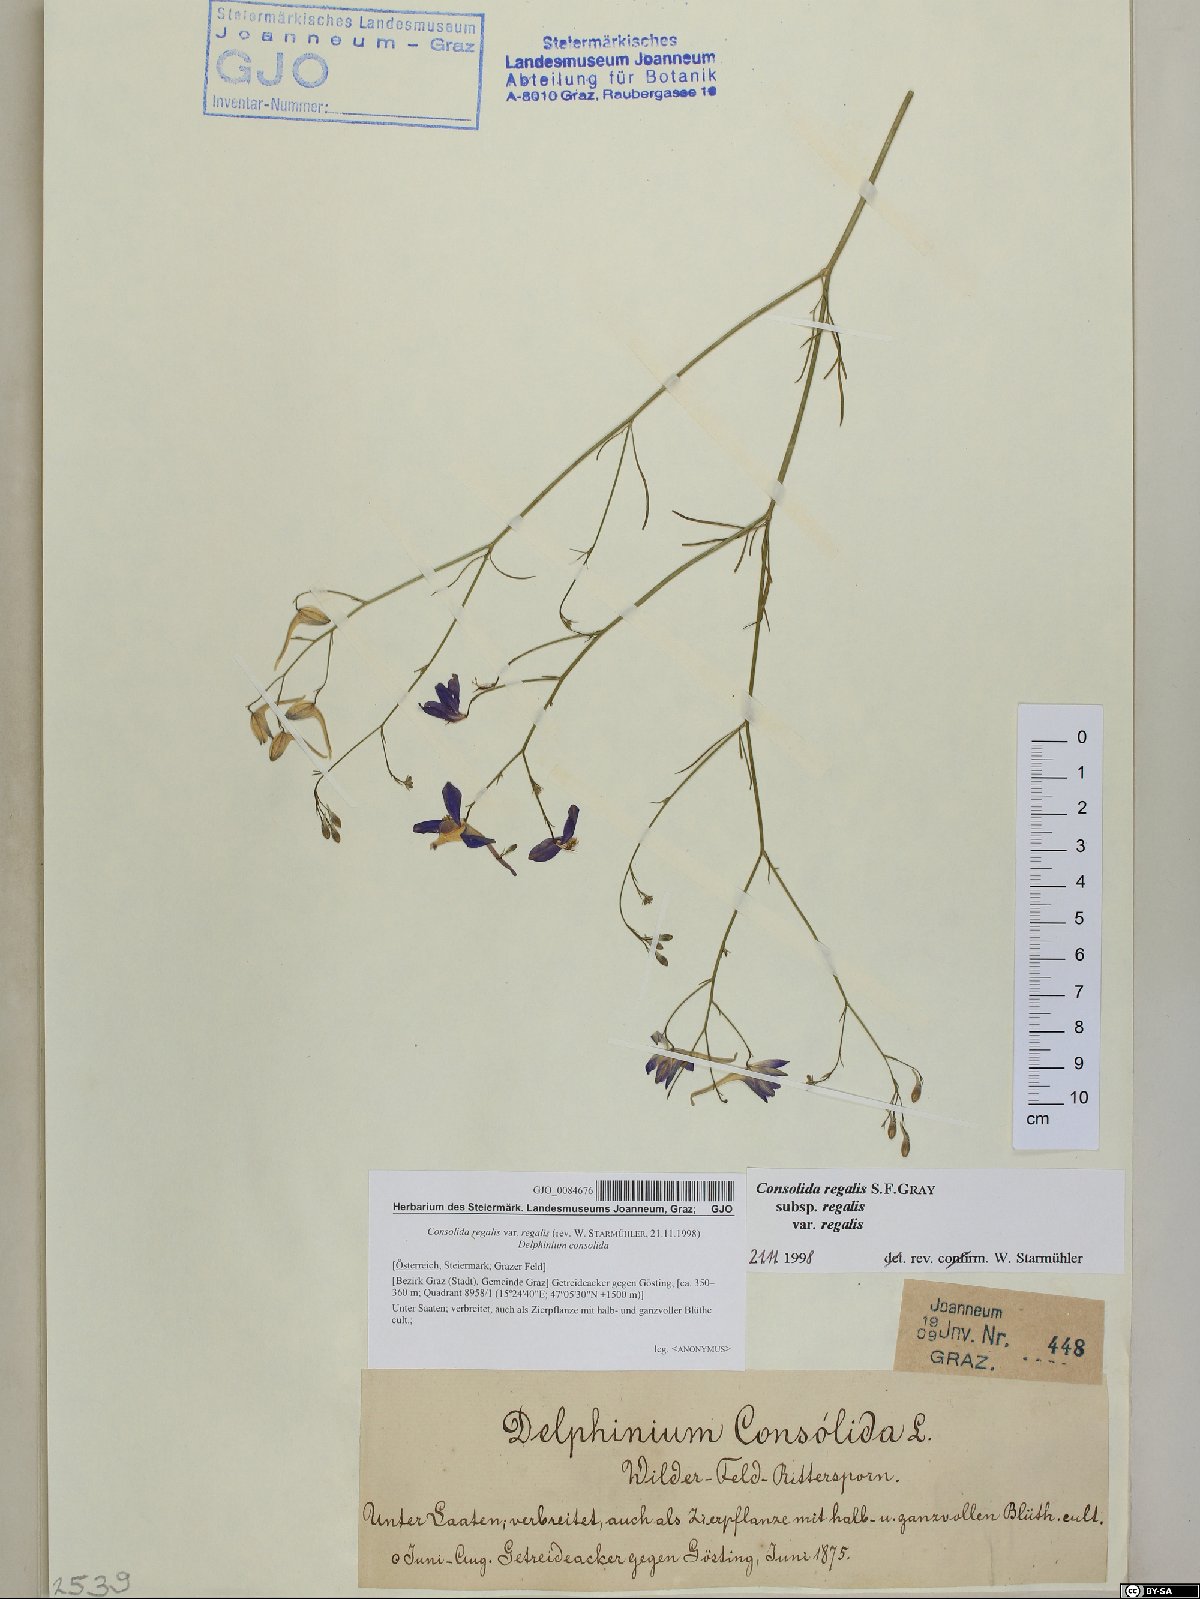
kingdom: Plantae
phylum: Tracheophyta
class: Magnoliopsida
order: Ranunculales
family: Ranunculaceae
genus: Delphinium
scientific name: Delphinium consolida
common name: Branching larkspur
